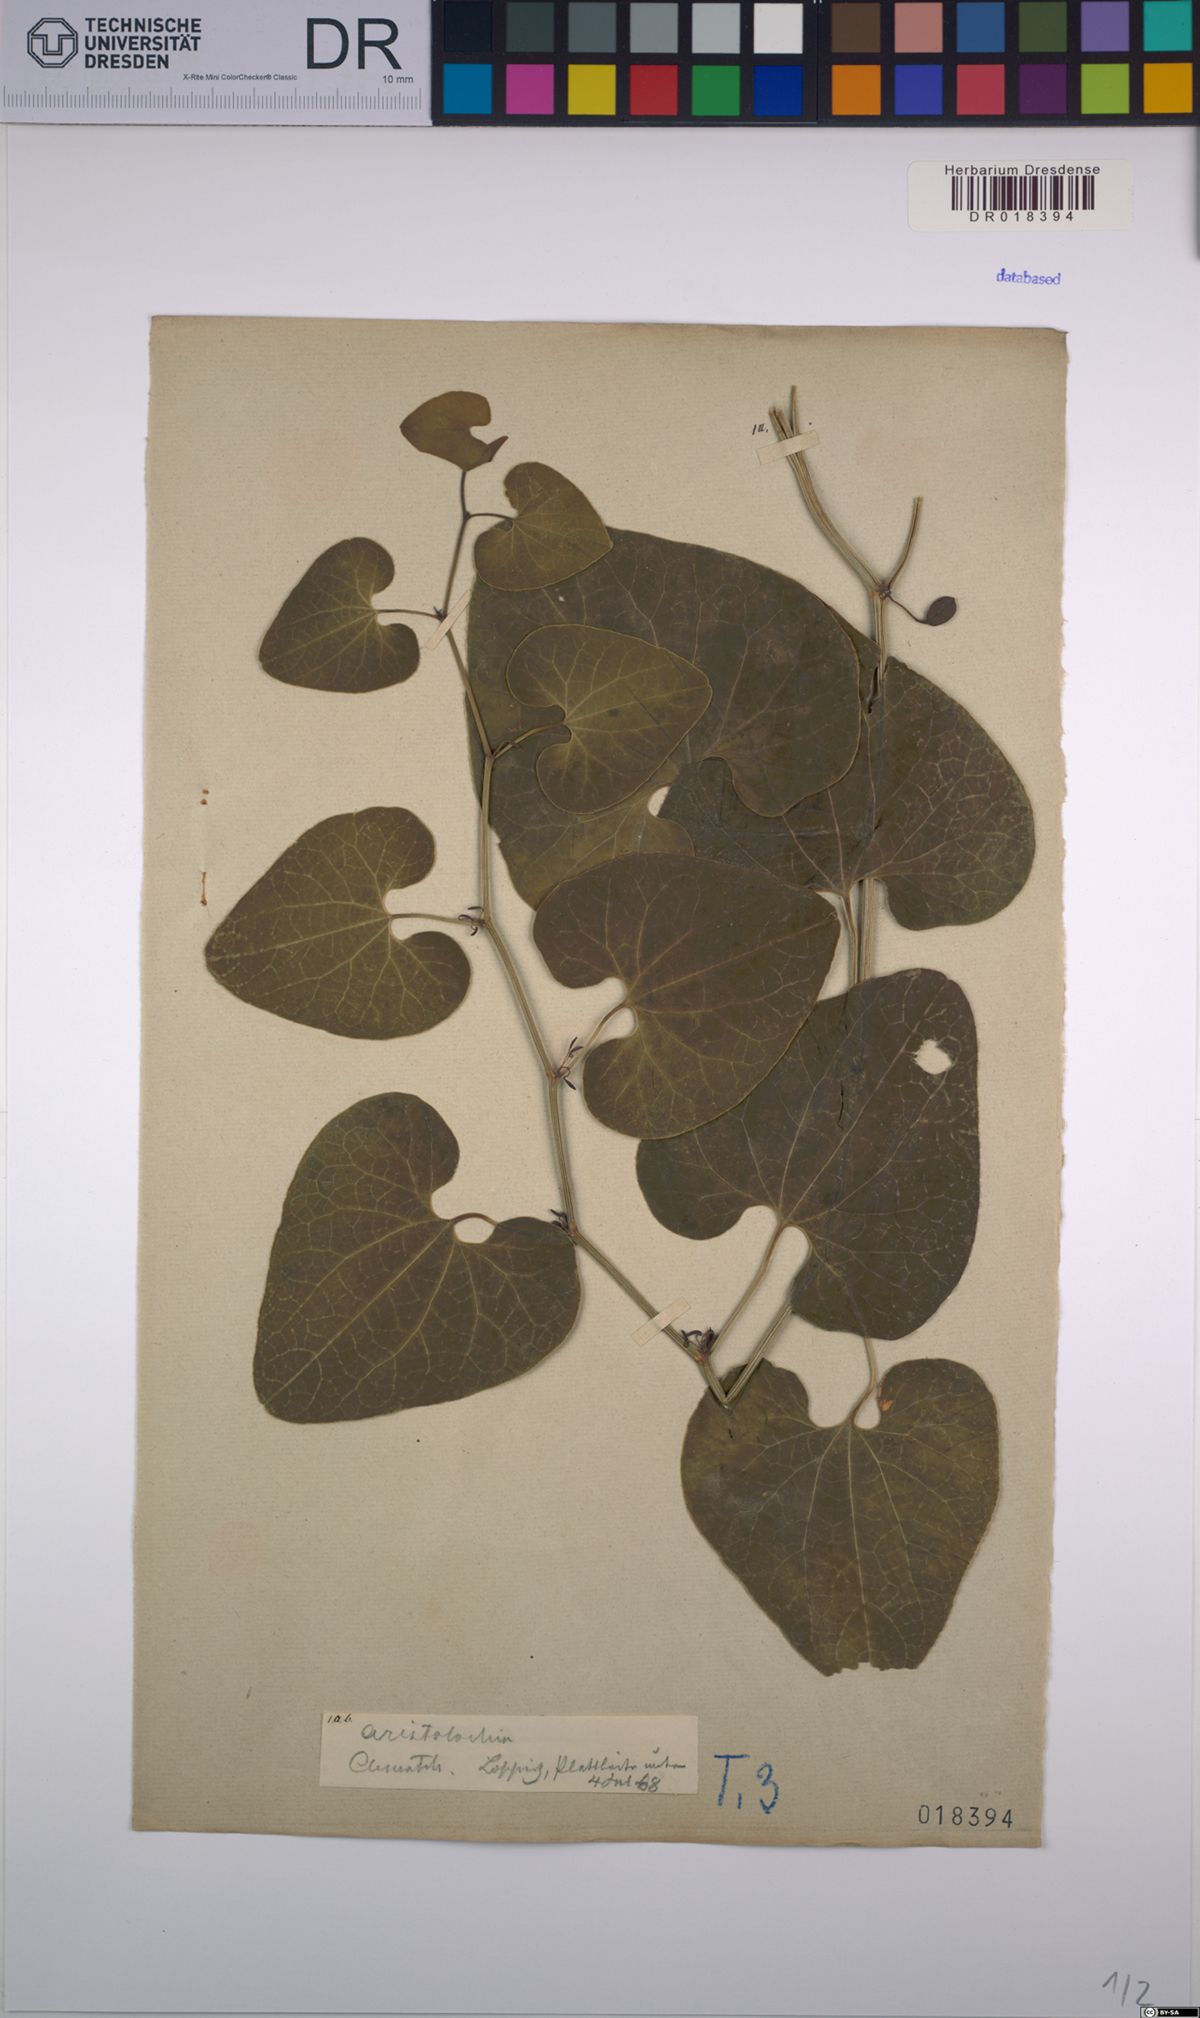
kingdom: Plantae
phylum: Tracheophyta
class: Magnoliopsida
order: Piperales
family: Aristolochiaceae
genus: Aristolochia
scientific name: Aristolochia clematitis
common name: Birthwort
